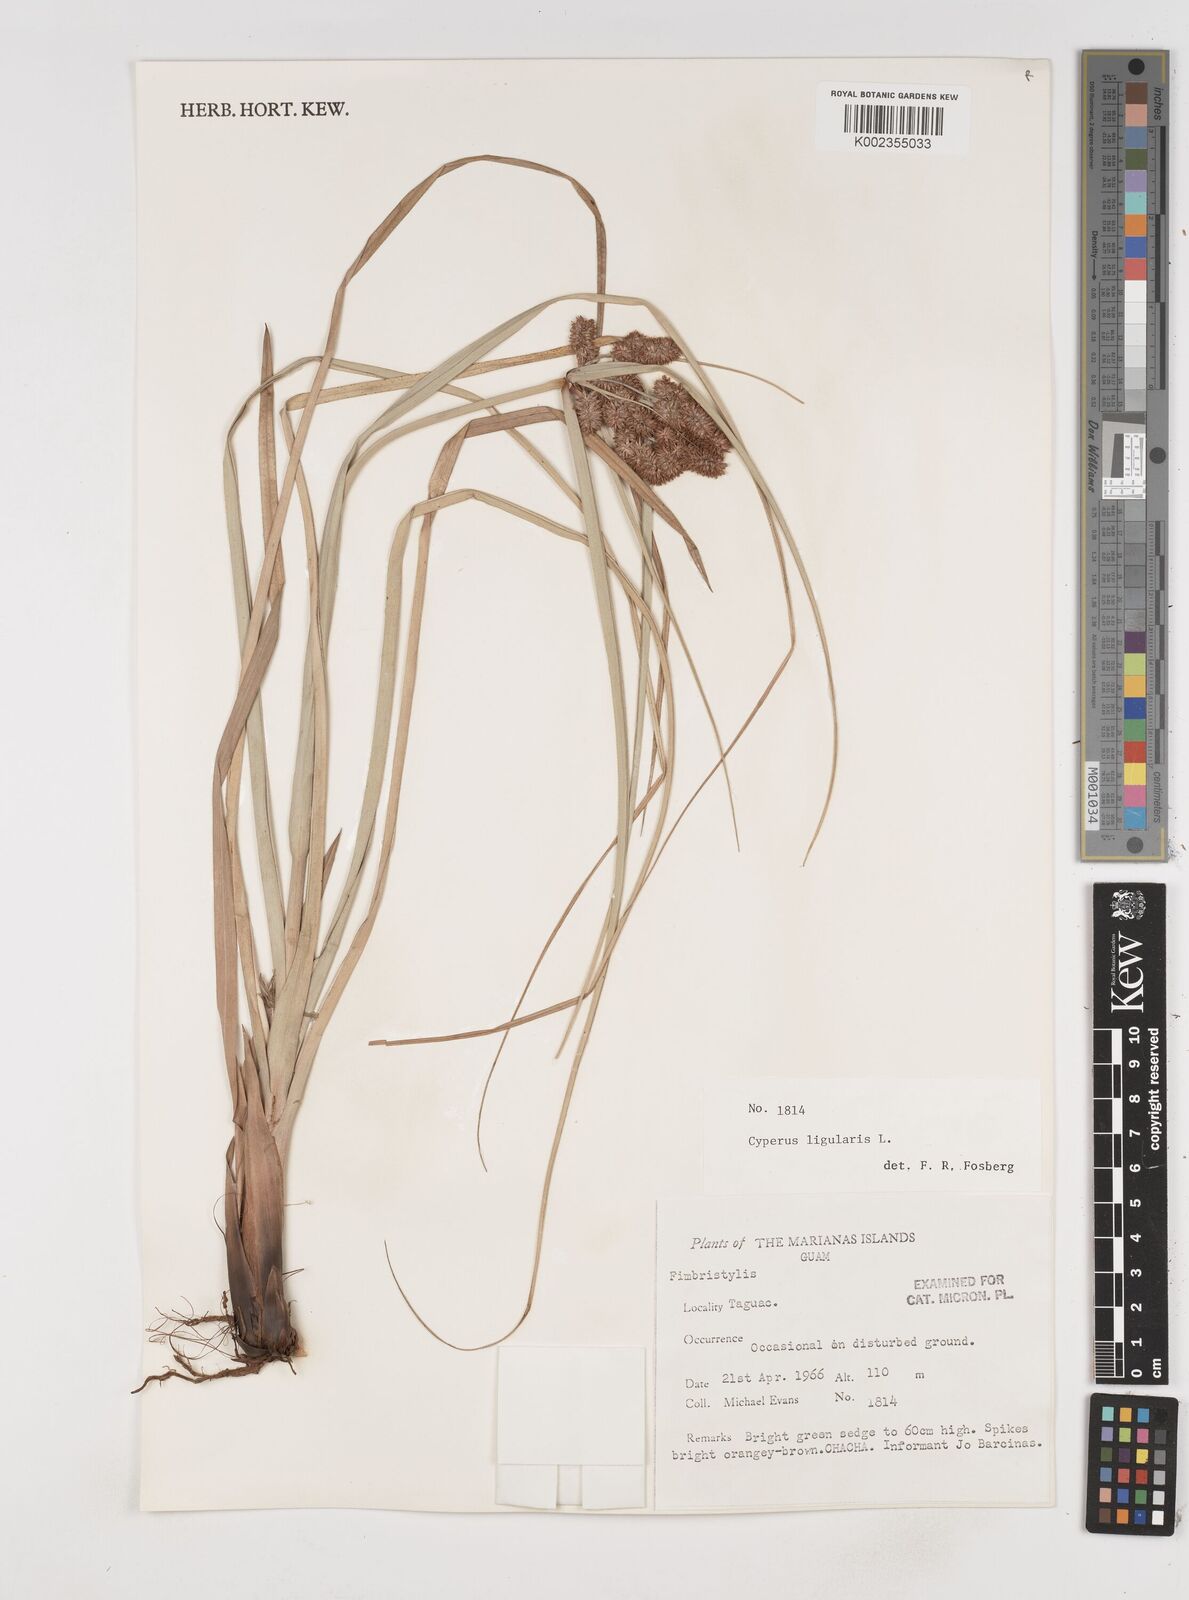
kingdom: Plantae
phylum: Tracheophyta
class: Liliopsida
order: Poales
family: Cyperaceae
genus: Cyperus
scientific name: Cyperus ligularis
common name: Swamp flat sedge
